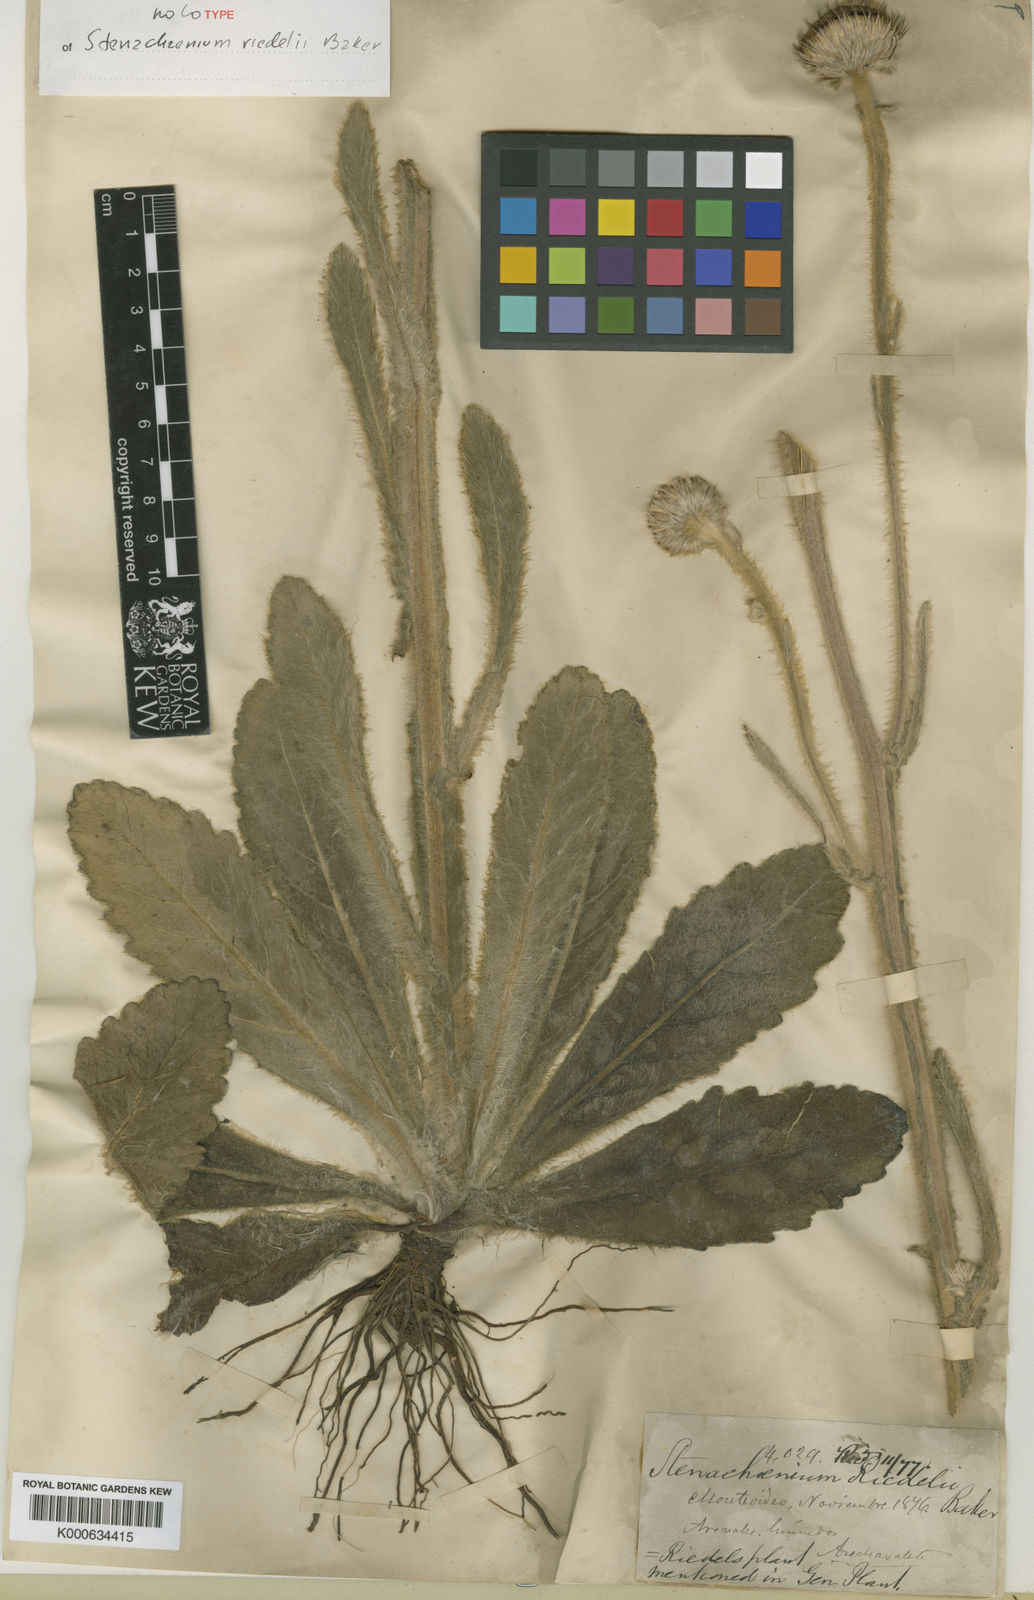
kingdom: Plantae
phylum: Tracheophyta
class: Magnoliopsida
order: Asterales
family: Asteraceae
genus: Stenachaenium
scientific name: Stenachaenium riedelii
